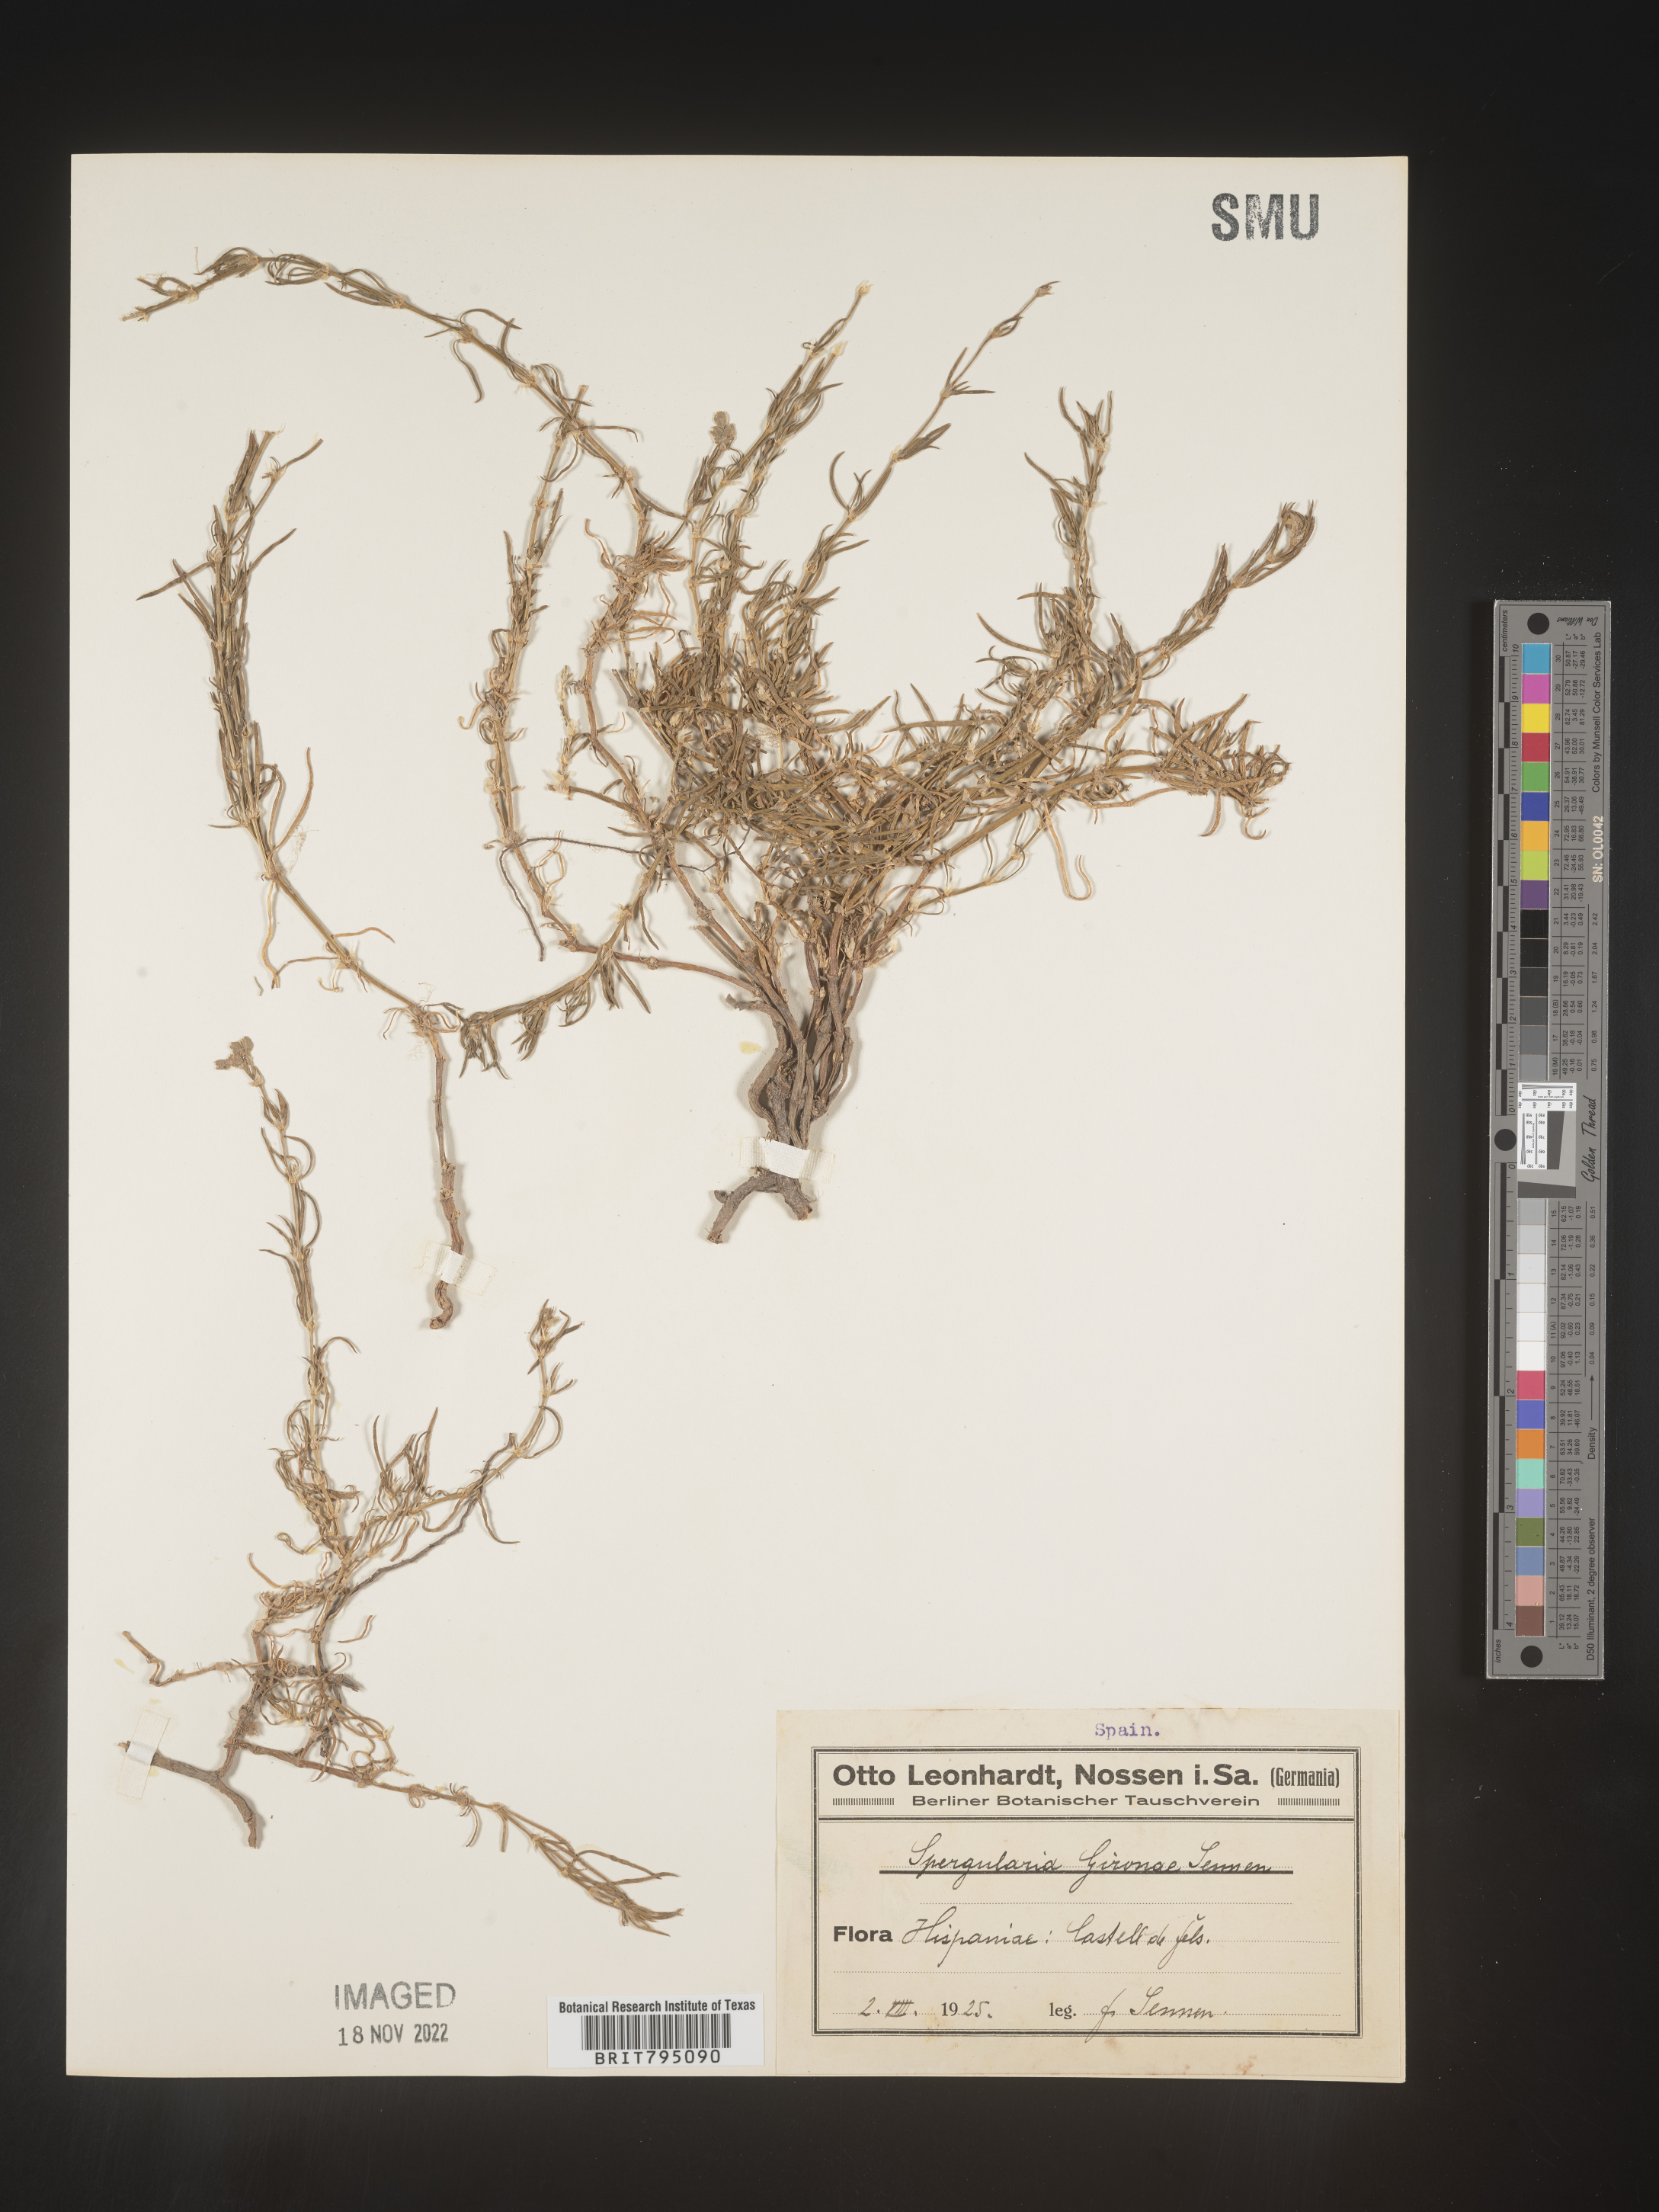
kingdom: Plantae
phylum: Tracheophyta
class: Magnoliopsida
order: Caryophyllales
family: Caryophyllaceae
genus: Spergularia
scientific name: Spergularia
